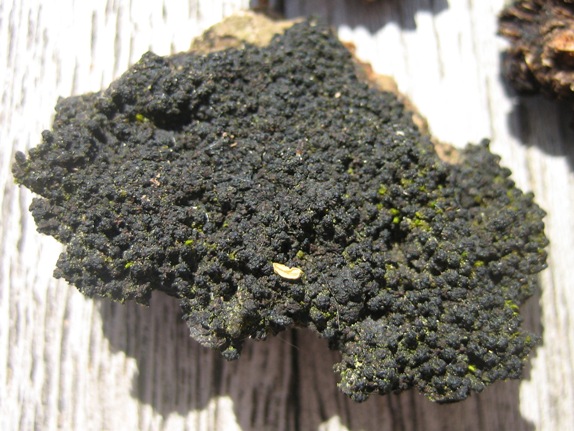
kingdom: Fungi
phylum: Ascomycota
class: Sordariomycetes
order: Xylariales
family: Diatrypaceae
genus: Eutypa
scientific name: Eutypa spinosa
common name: grov kulskorpe
